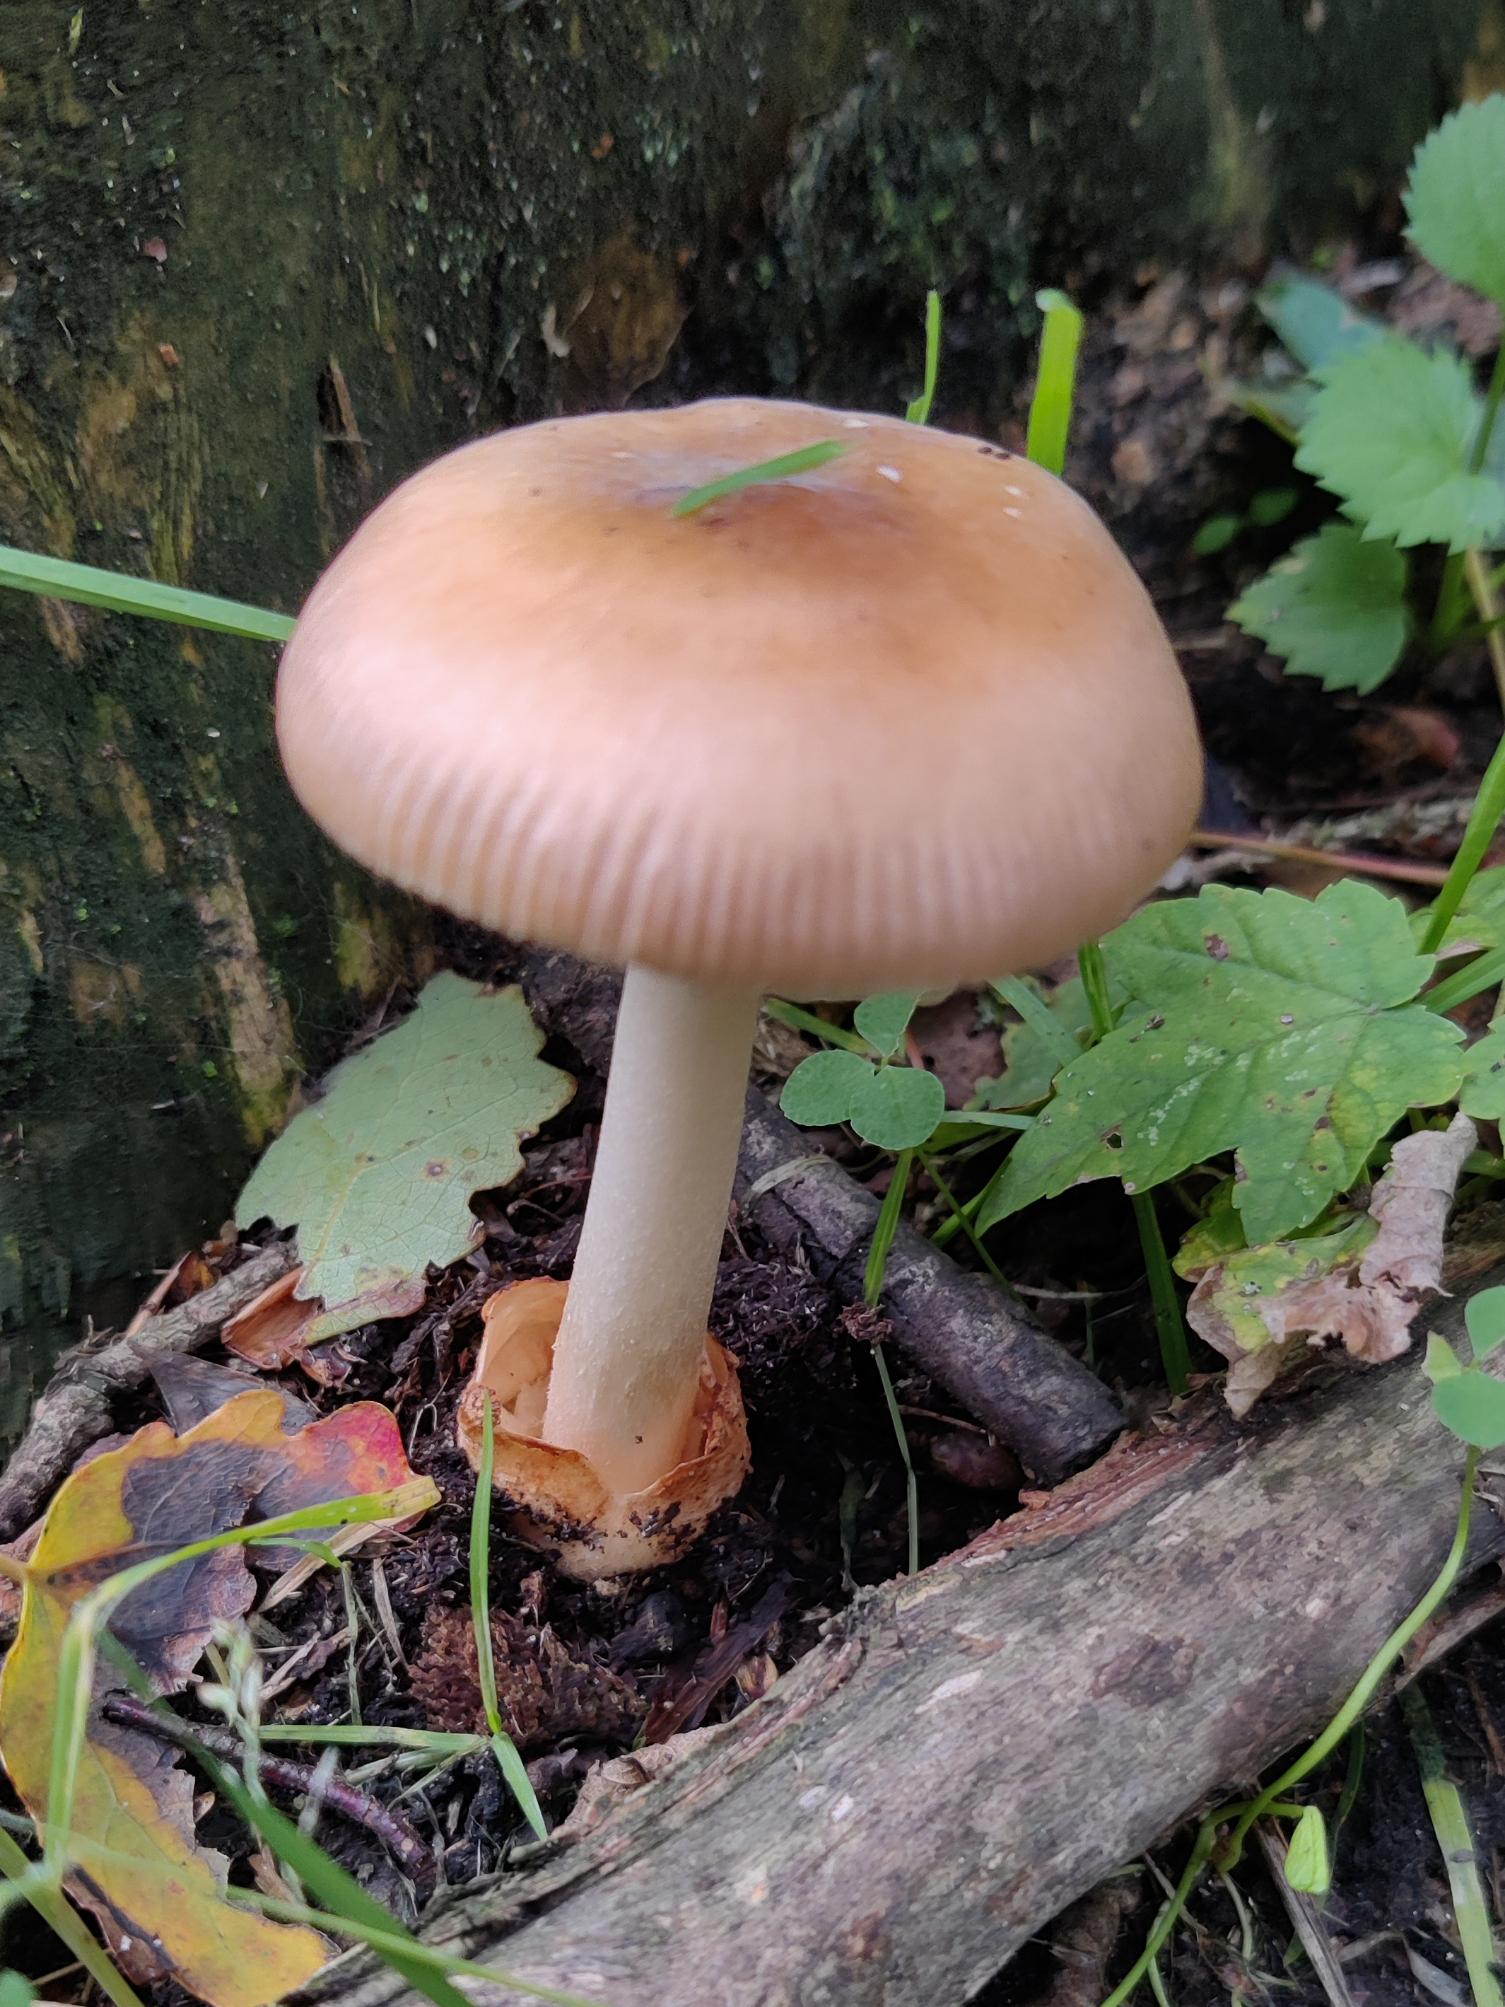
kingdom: Fungi
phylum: Basidiomycota
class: Agaricomycetes
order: Agaricales
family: Amanitaceae
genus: Amanita
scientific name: Amanita fulva
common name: Brun kam-fluesvamp
